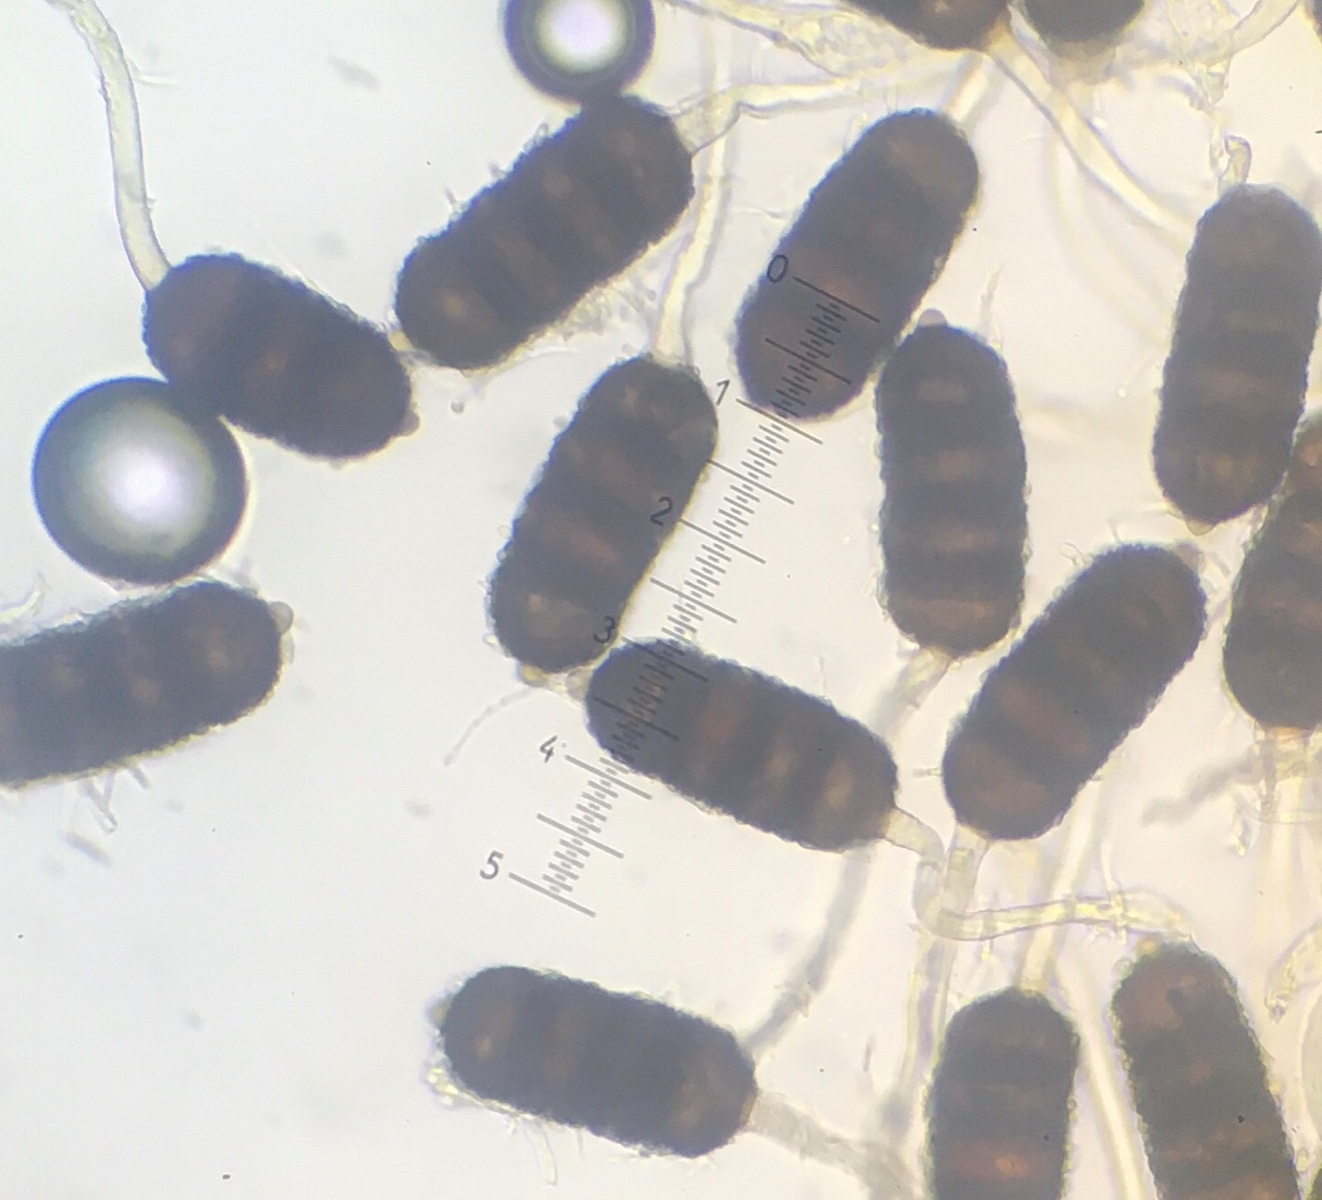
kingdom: Fungi
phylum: Basidiomycota
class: Pucciniomycetes
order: Pucciniales
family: Phragmidiaceae
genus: Phragmidium
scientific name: Phragmidium violaceum
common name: violet flercellerust
